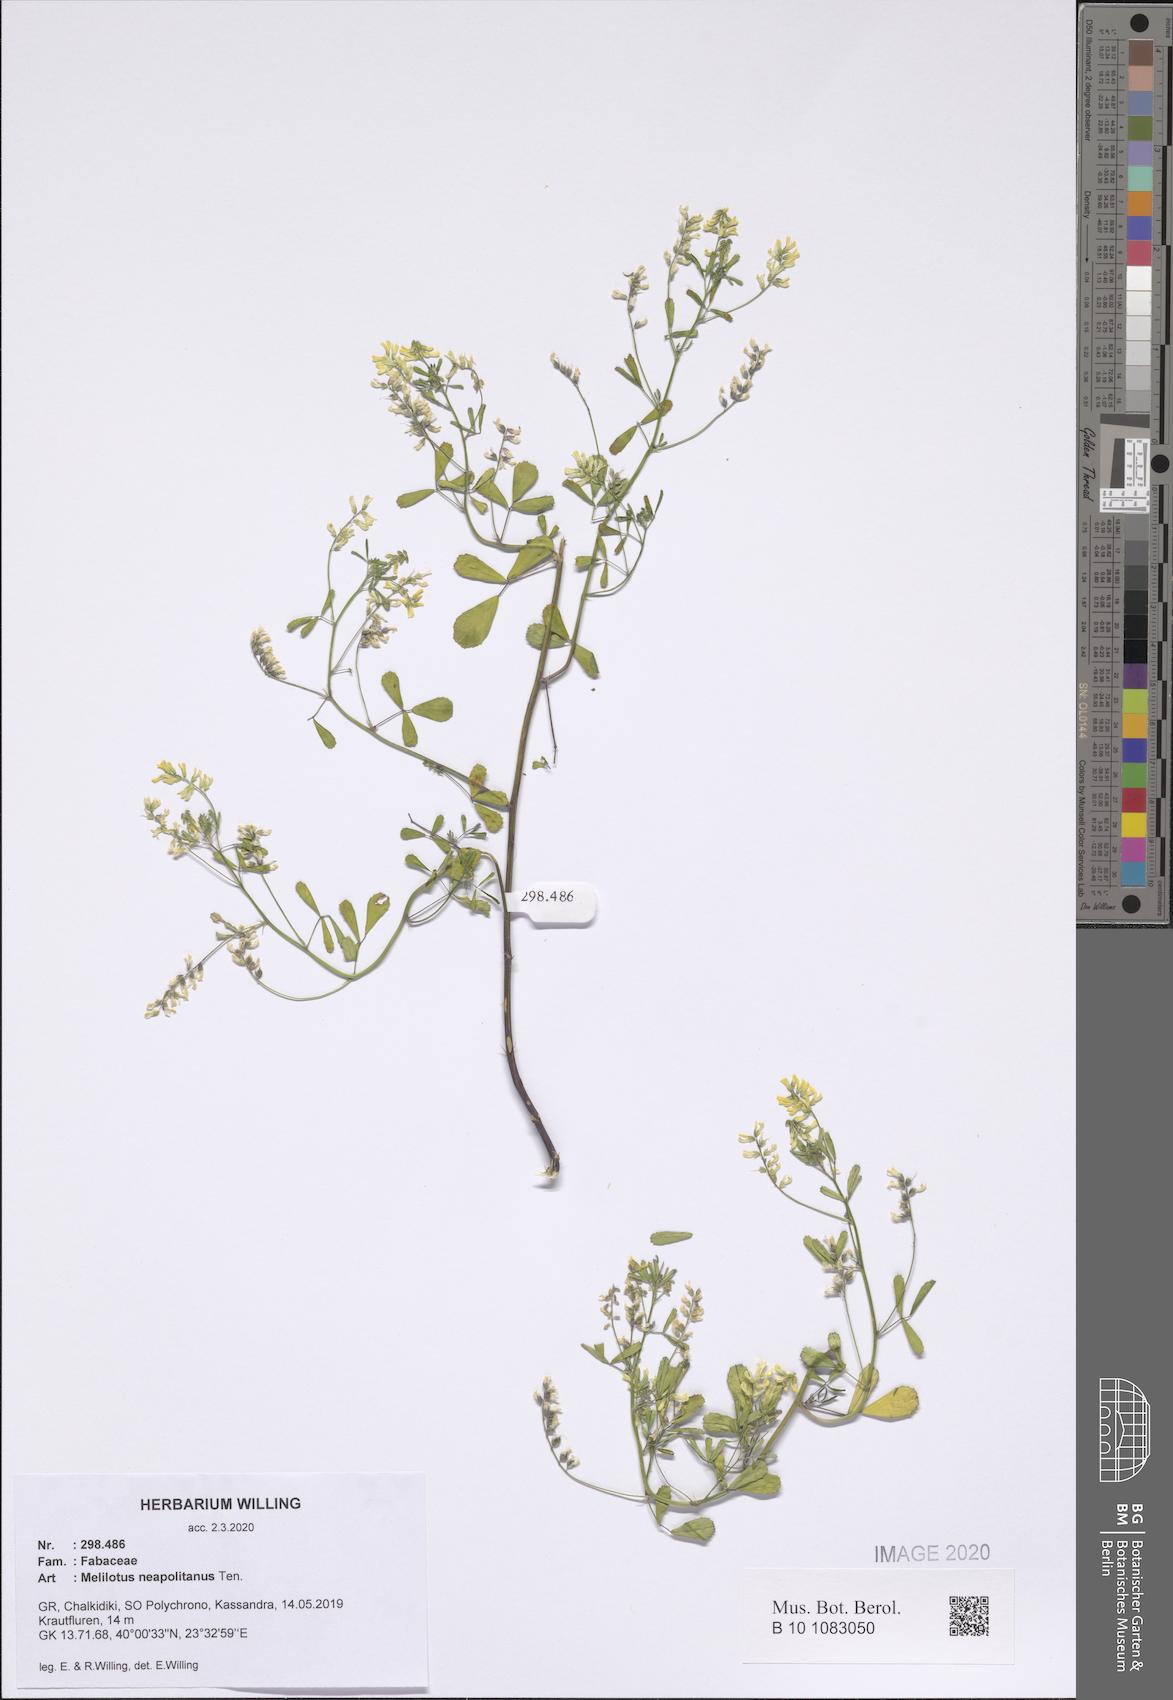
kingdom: Plantae
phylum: Tracheophyta
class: Magnoliopsida
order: Fabales
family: Fabaceae
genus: Melilotus
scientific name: Melilotus neapolitanus
